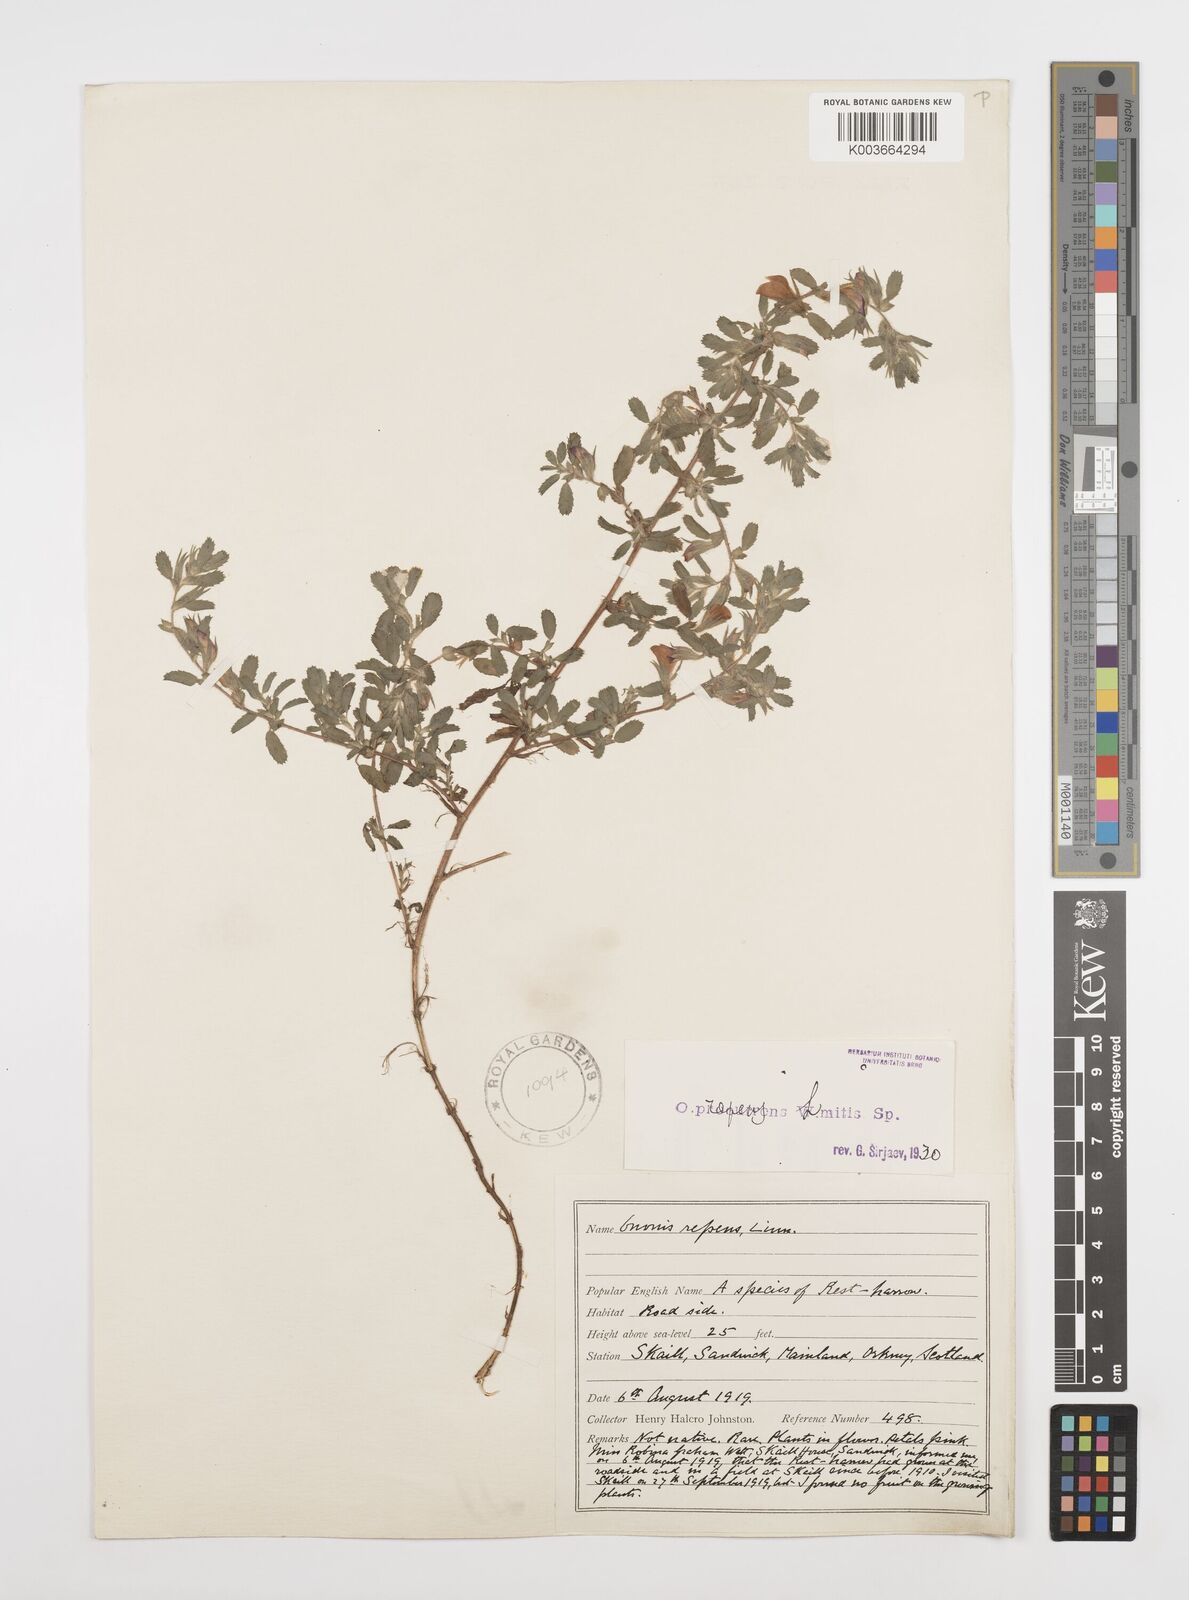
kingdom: Plantae
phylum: Tracheophyta
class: Magnoliopsida
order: Fabales
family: Fabaceae
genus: Ononis
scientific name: Ononis spinosa
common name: Spiny restharrow
